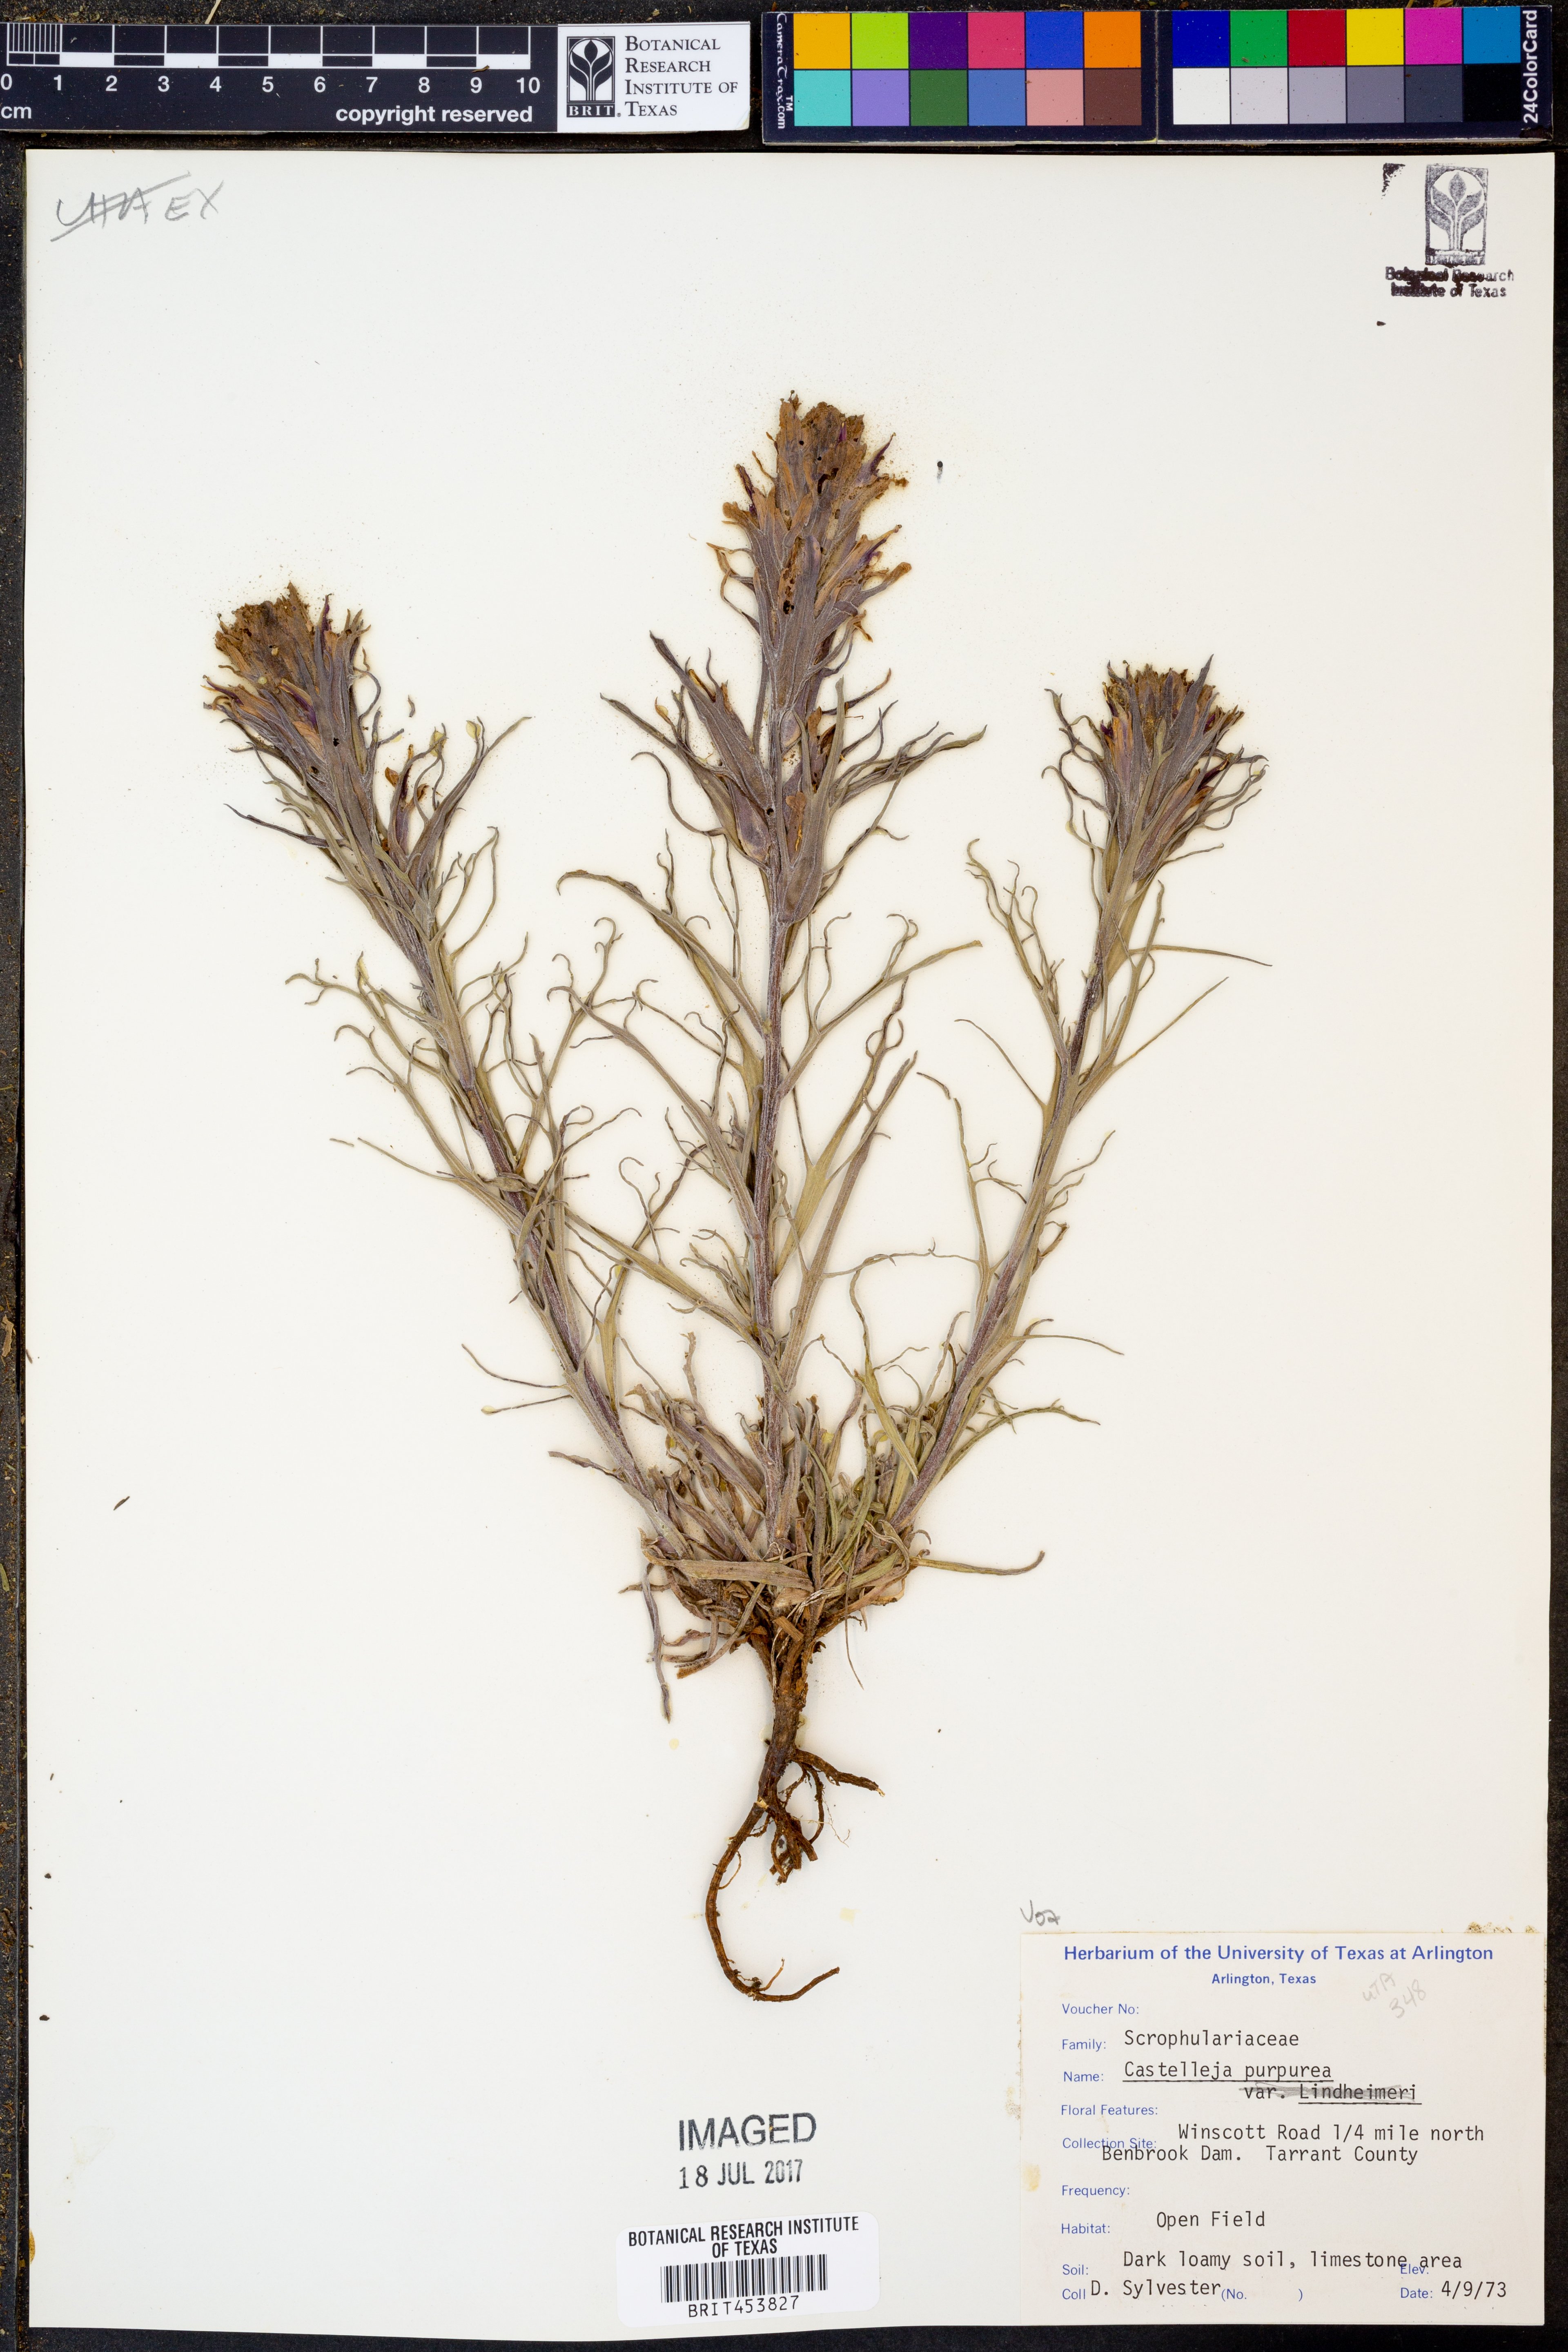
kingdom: Plantae
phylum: Tracheophyta
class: Magnoliopsida
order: Lamiales
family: Orobanchaceae
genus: Castilleja
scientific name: Castilleja purpurea
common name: Plains paintbrush
